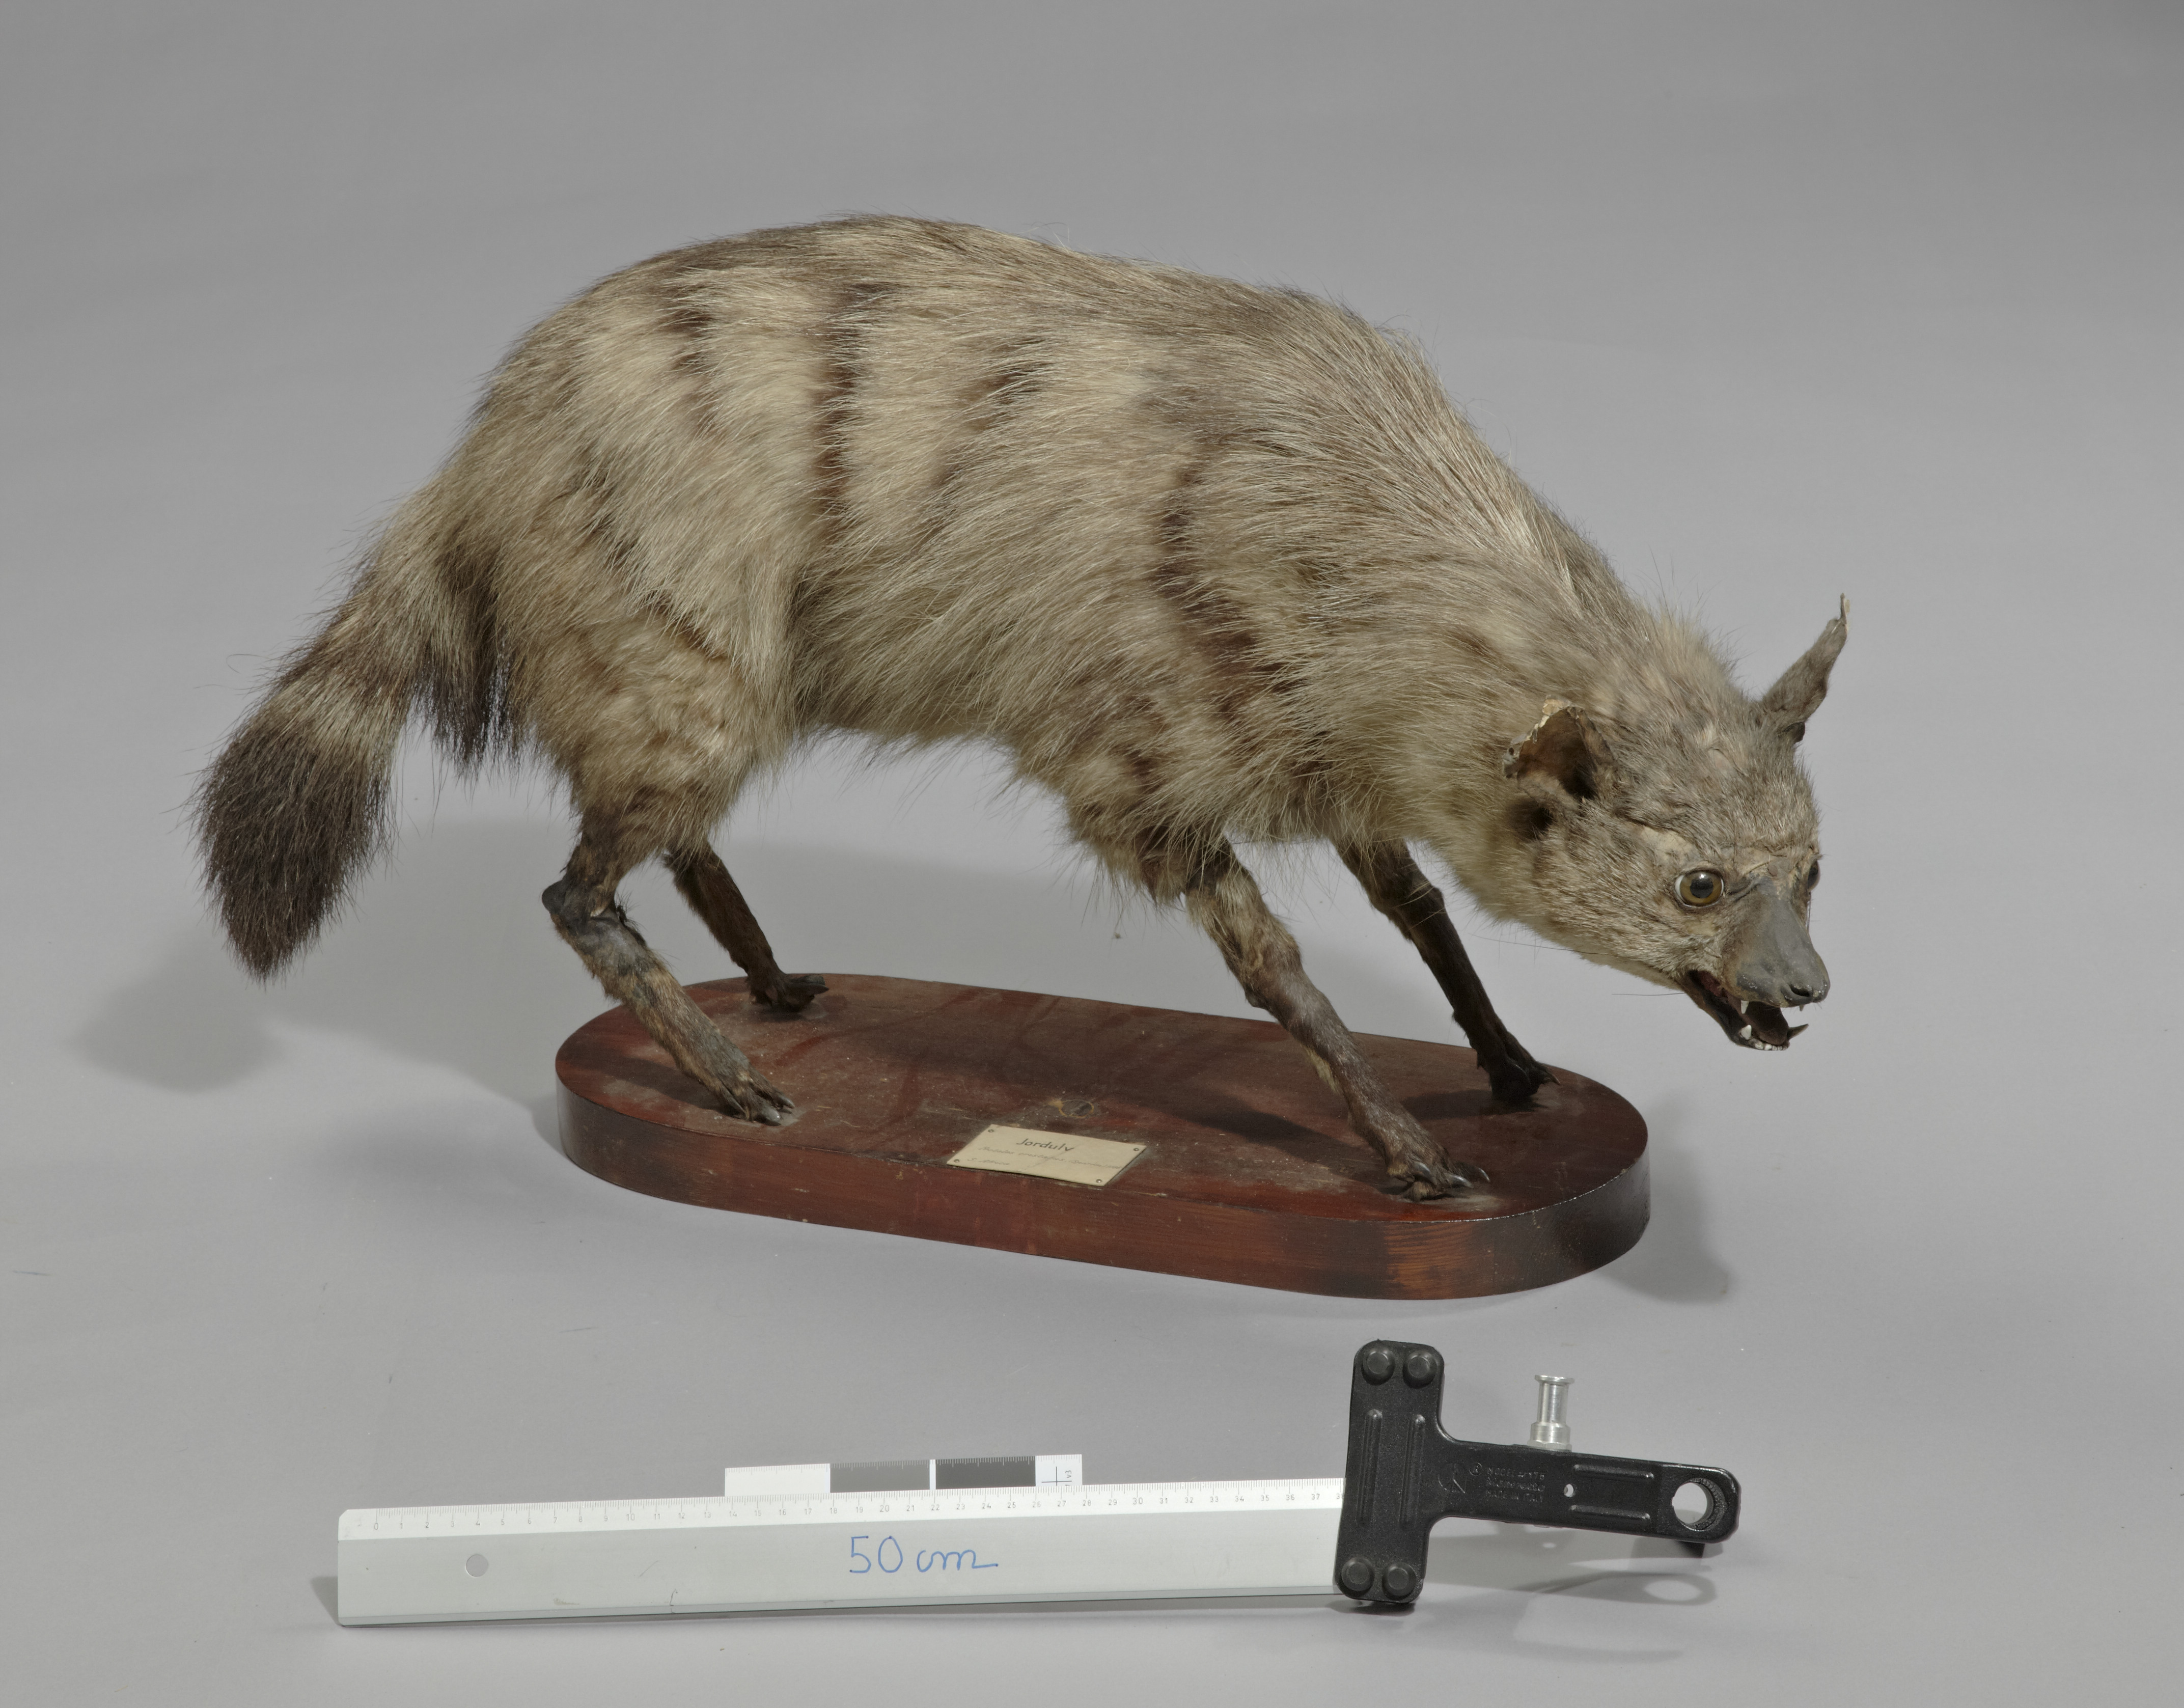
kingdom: Animalia
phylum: Chordata
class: Mammalia
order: Carnivora
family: Hyaenidae
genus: Proteles
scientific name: Proteles cristata
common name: Aardwolf
